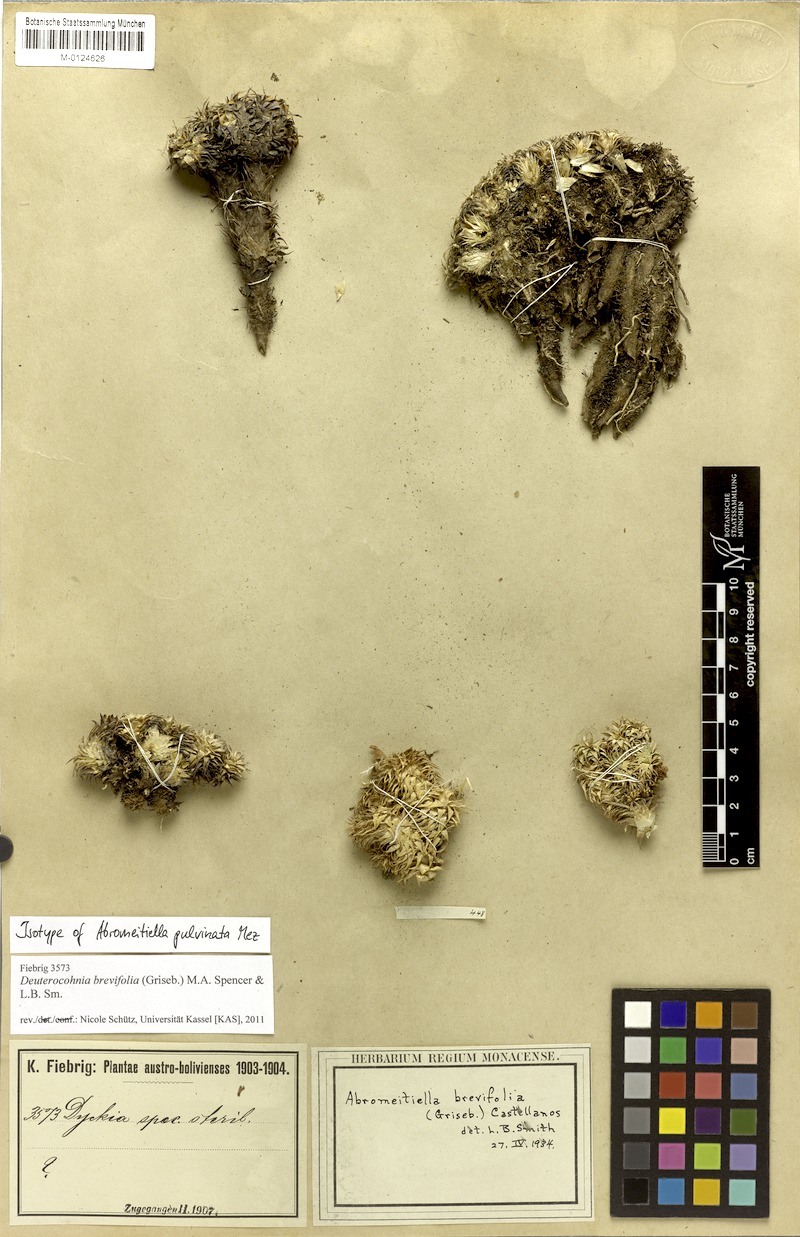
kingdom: Plantae
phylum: Tracheophyta
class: Liliopsida
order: Poales
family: Bromeliaceae
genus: Deuterocohnia
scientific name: Deuterocohnia brevifolia
